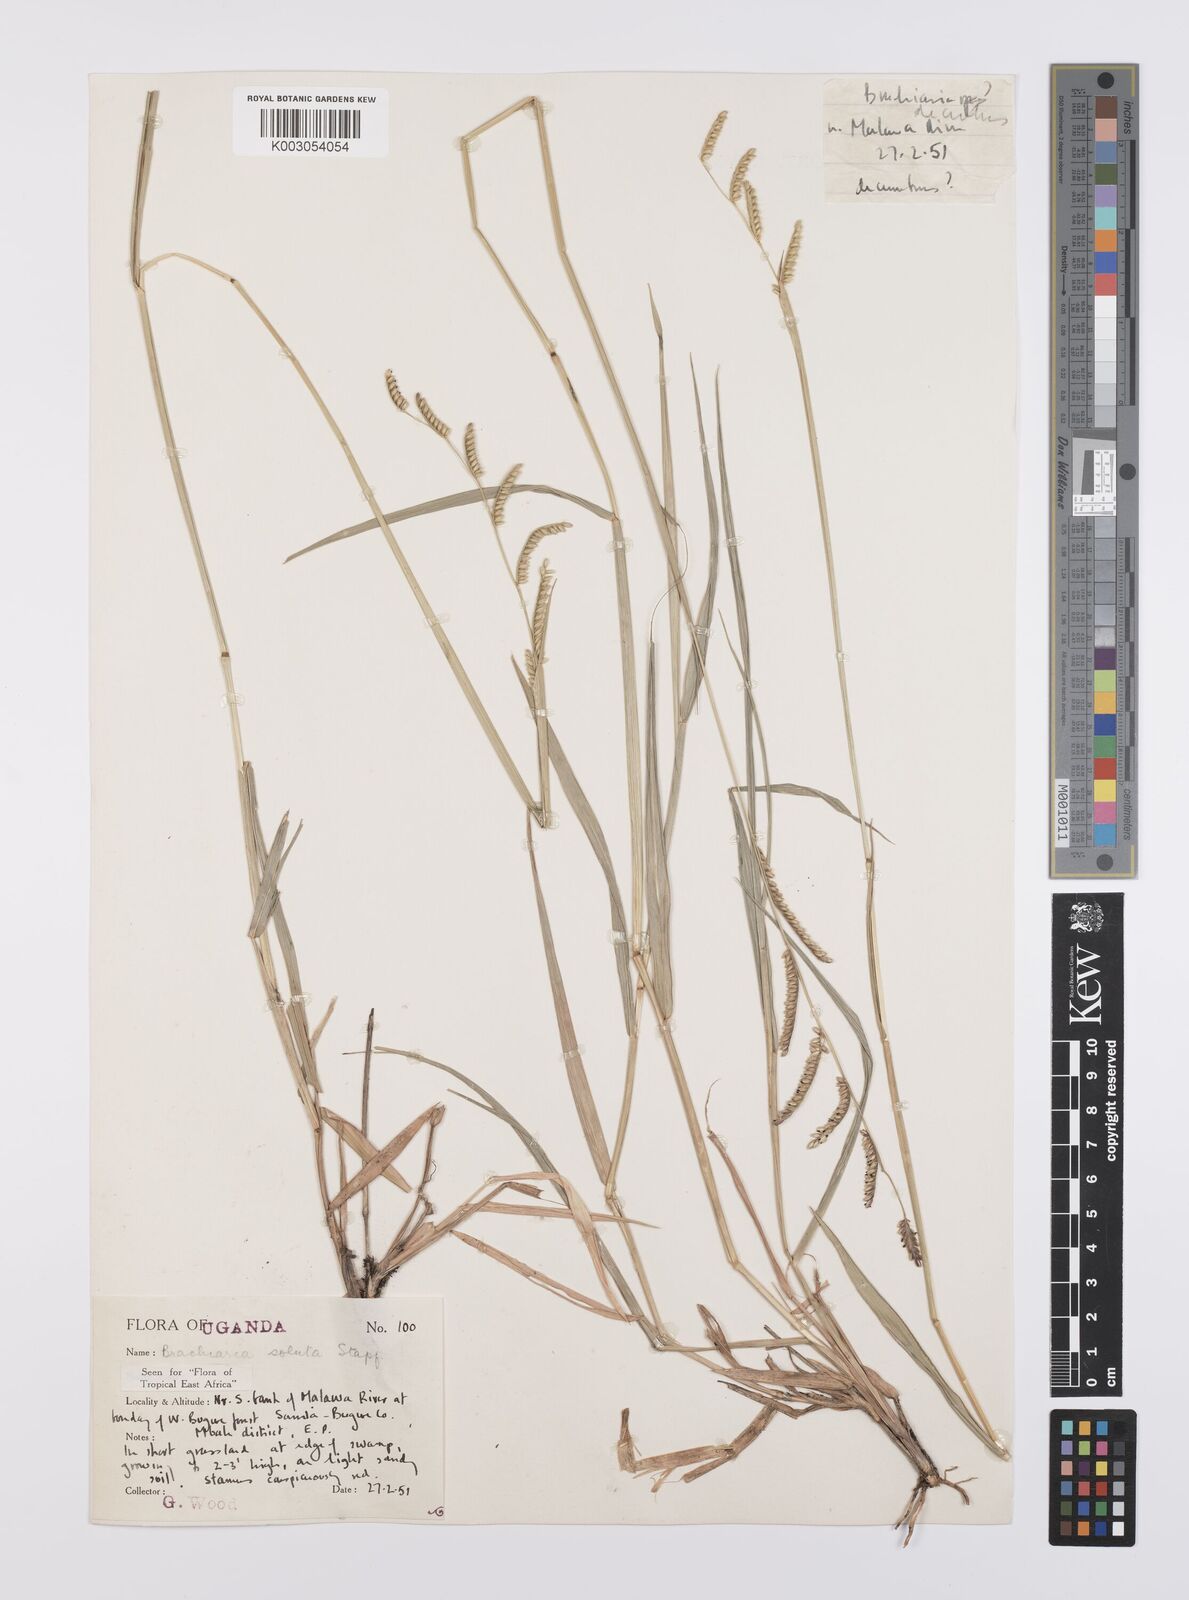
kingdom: Plantae
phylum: Tracheophyta
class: Liliopsida
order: Poales
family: Poaceae
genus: Urochloa
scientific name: Urochloa jubata
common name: Buffalograss
